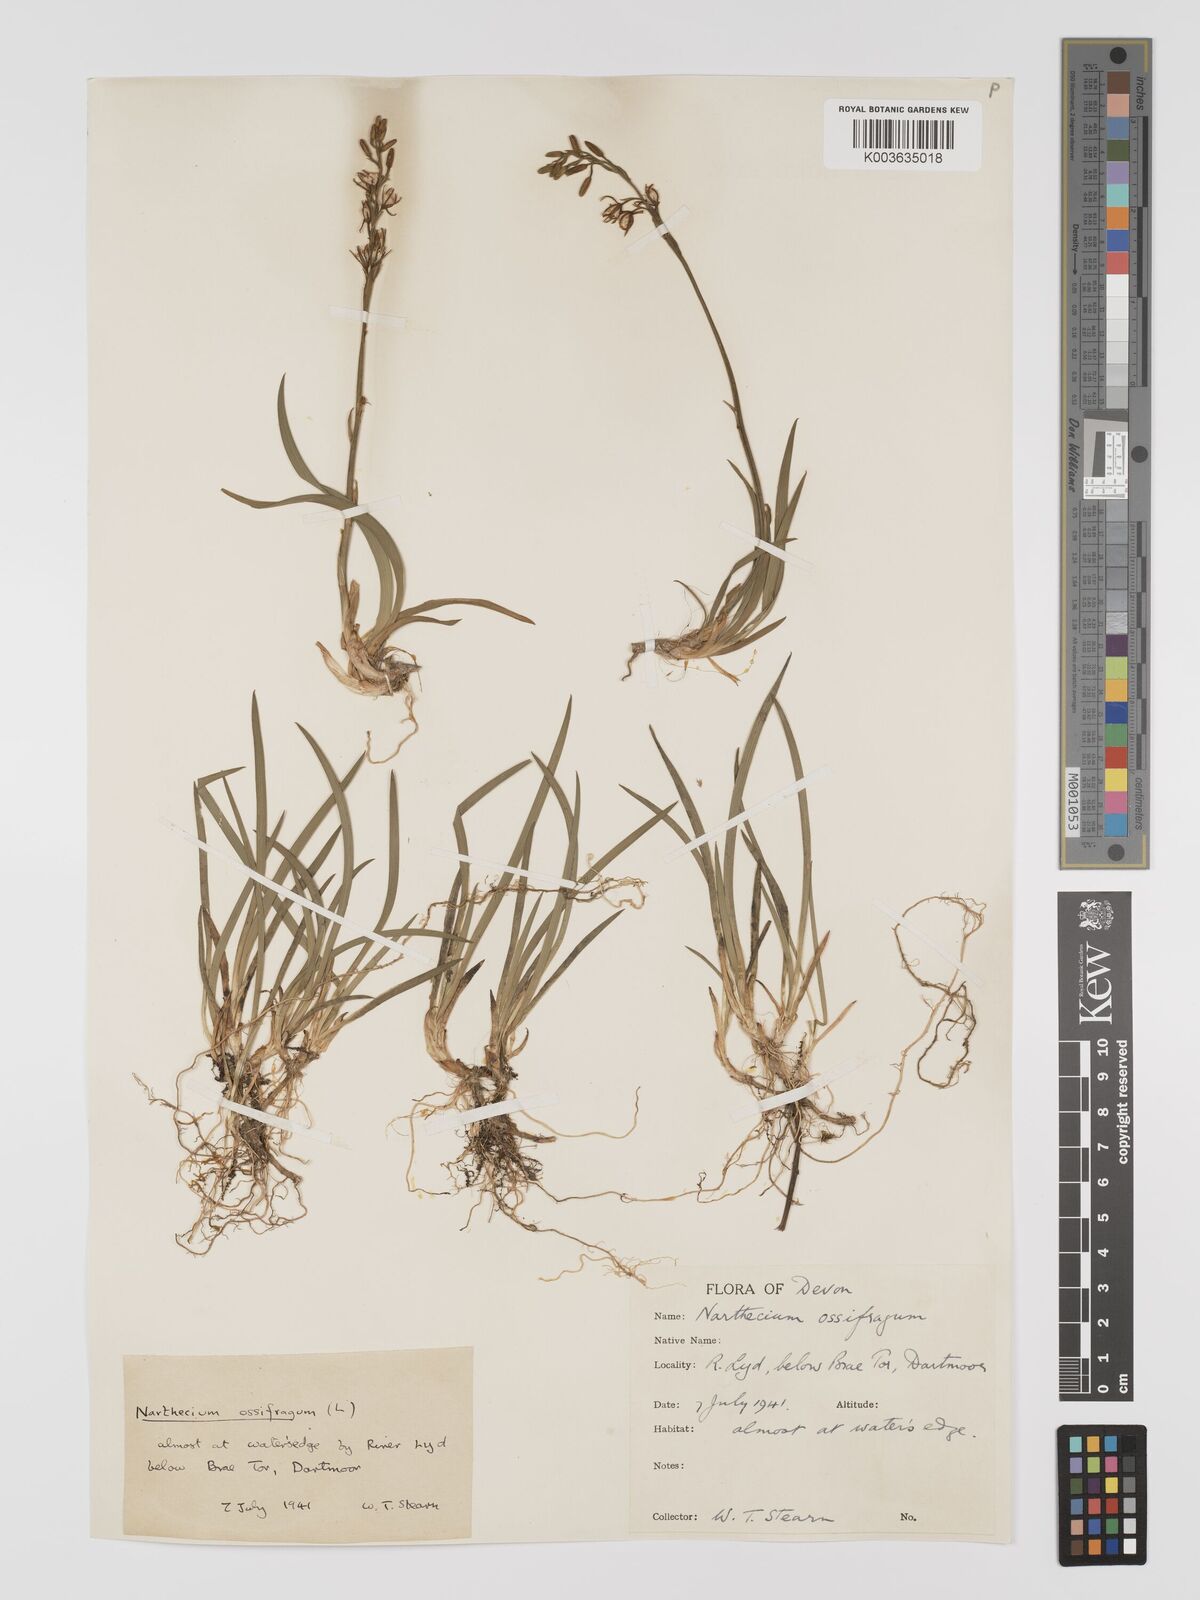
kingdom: Plantae
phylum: Tracheophyta
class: Liliopsida
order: Dioscoreales
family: Nartheciaceae
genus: Narthecium
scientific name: Narthecium ossifragum
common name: Bog asphodel
